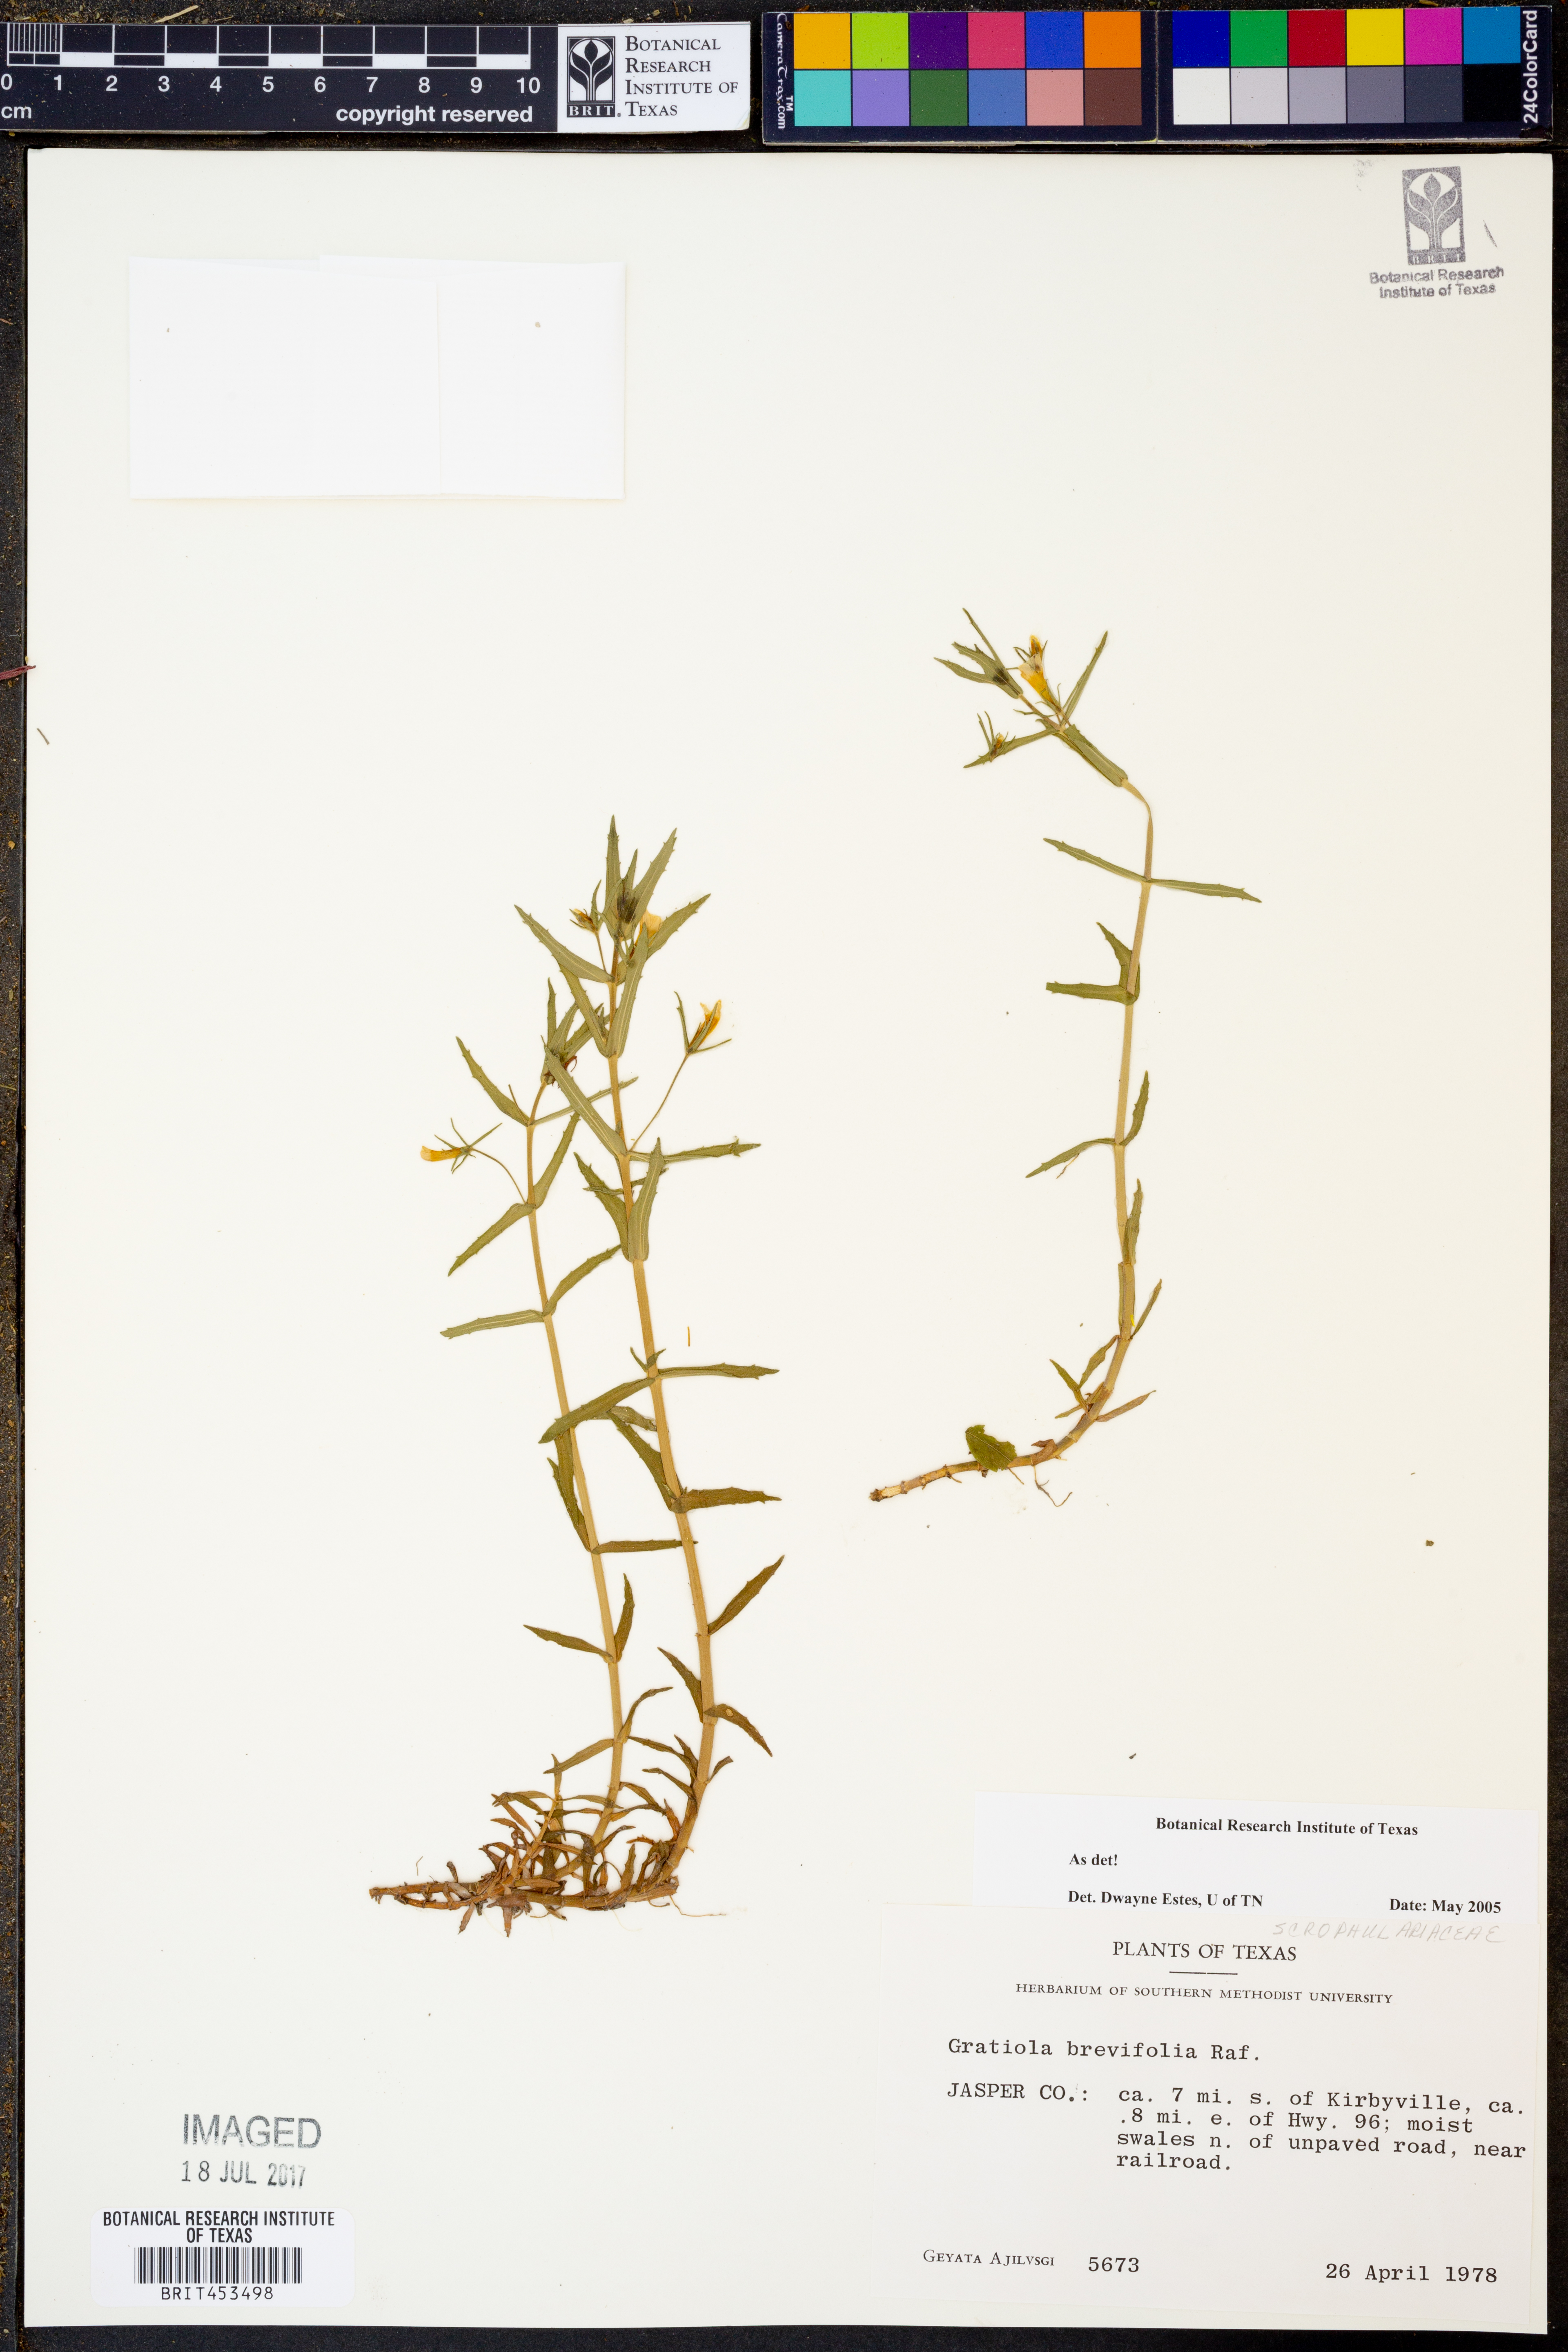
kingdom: Plantae
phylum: Tracheophyta
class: Magnoliopsida
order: Lamiales
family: Plantaginaceae
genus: Gratiola
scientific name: Gratiola brevifolia
